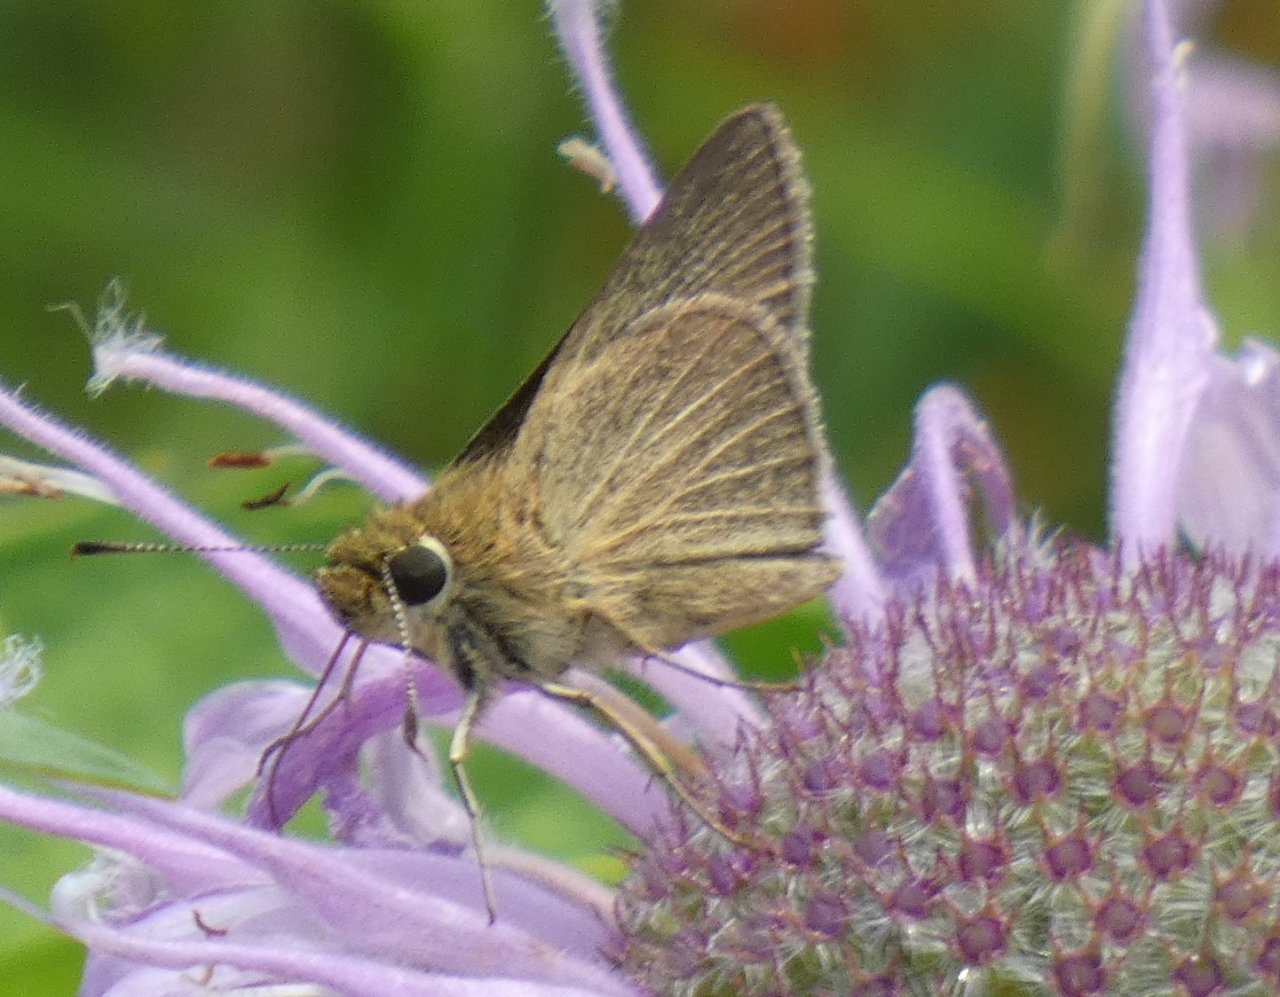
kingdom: Animalia
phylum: Arthropoda
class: Insecta
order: Lepidoptera
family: Hesperiidae
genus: Nastra
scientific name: Nastra lherminier
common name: Swarthy Skipper
